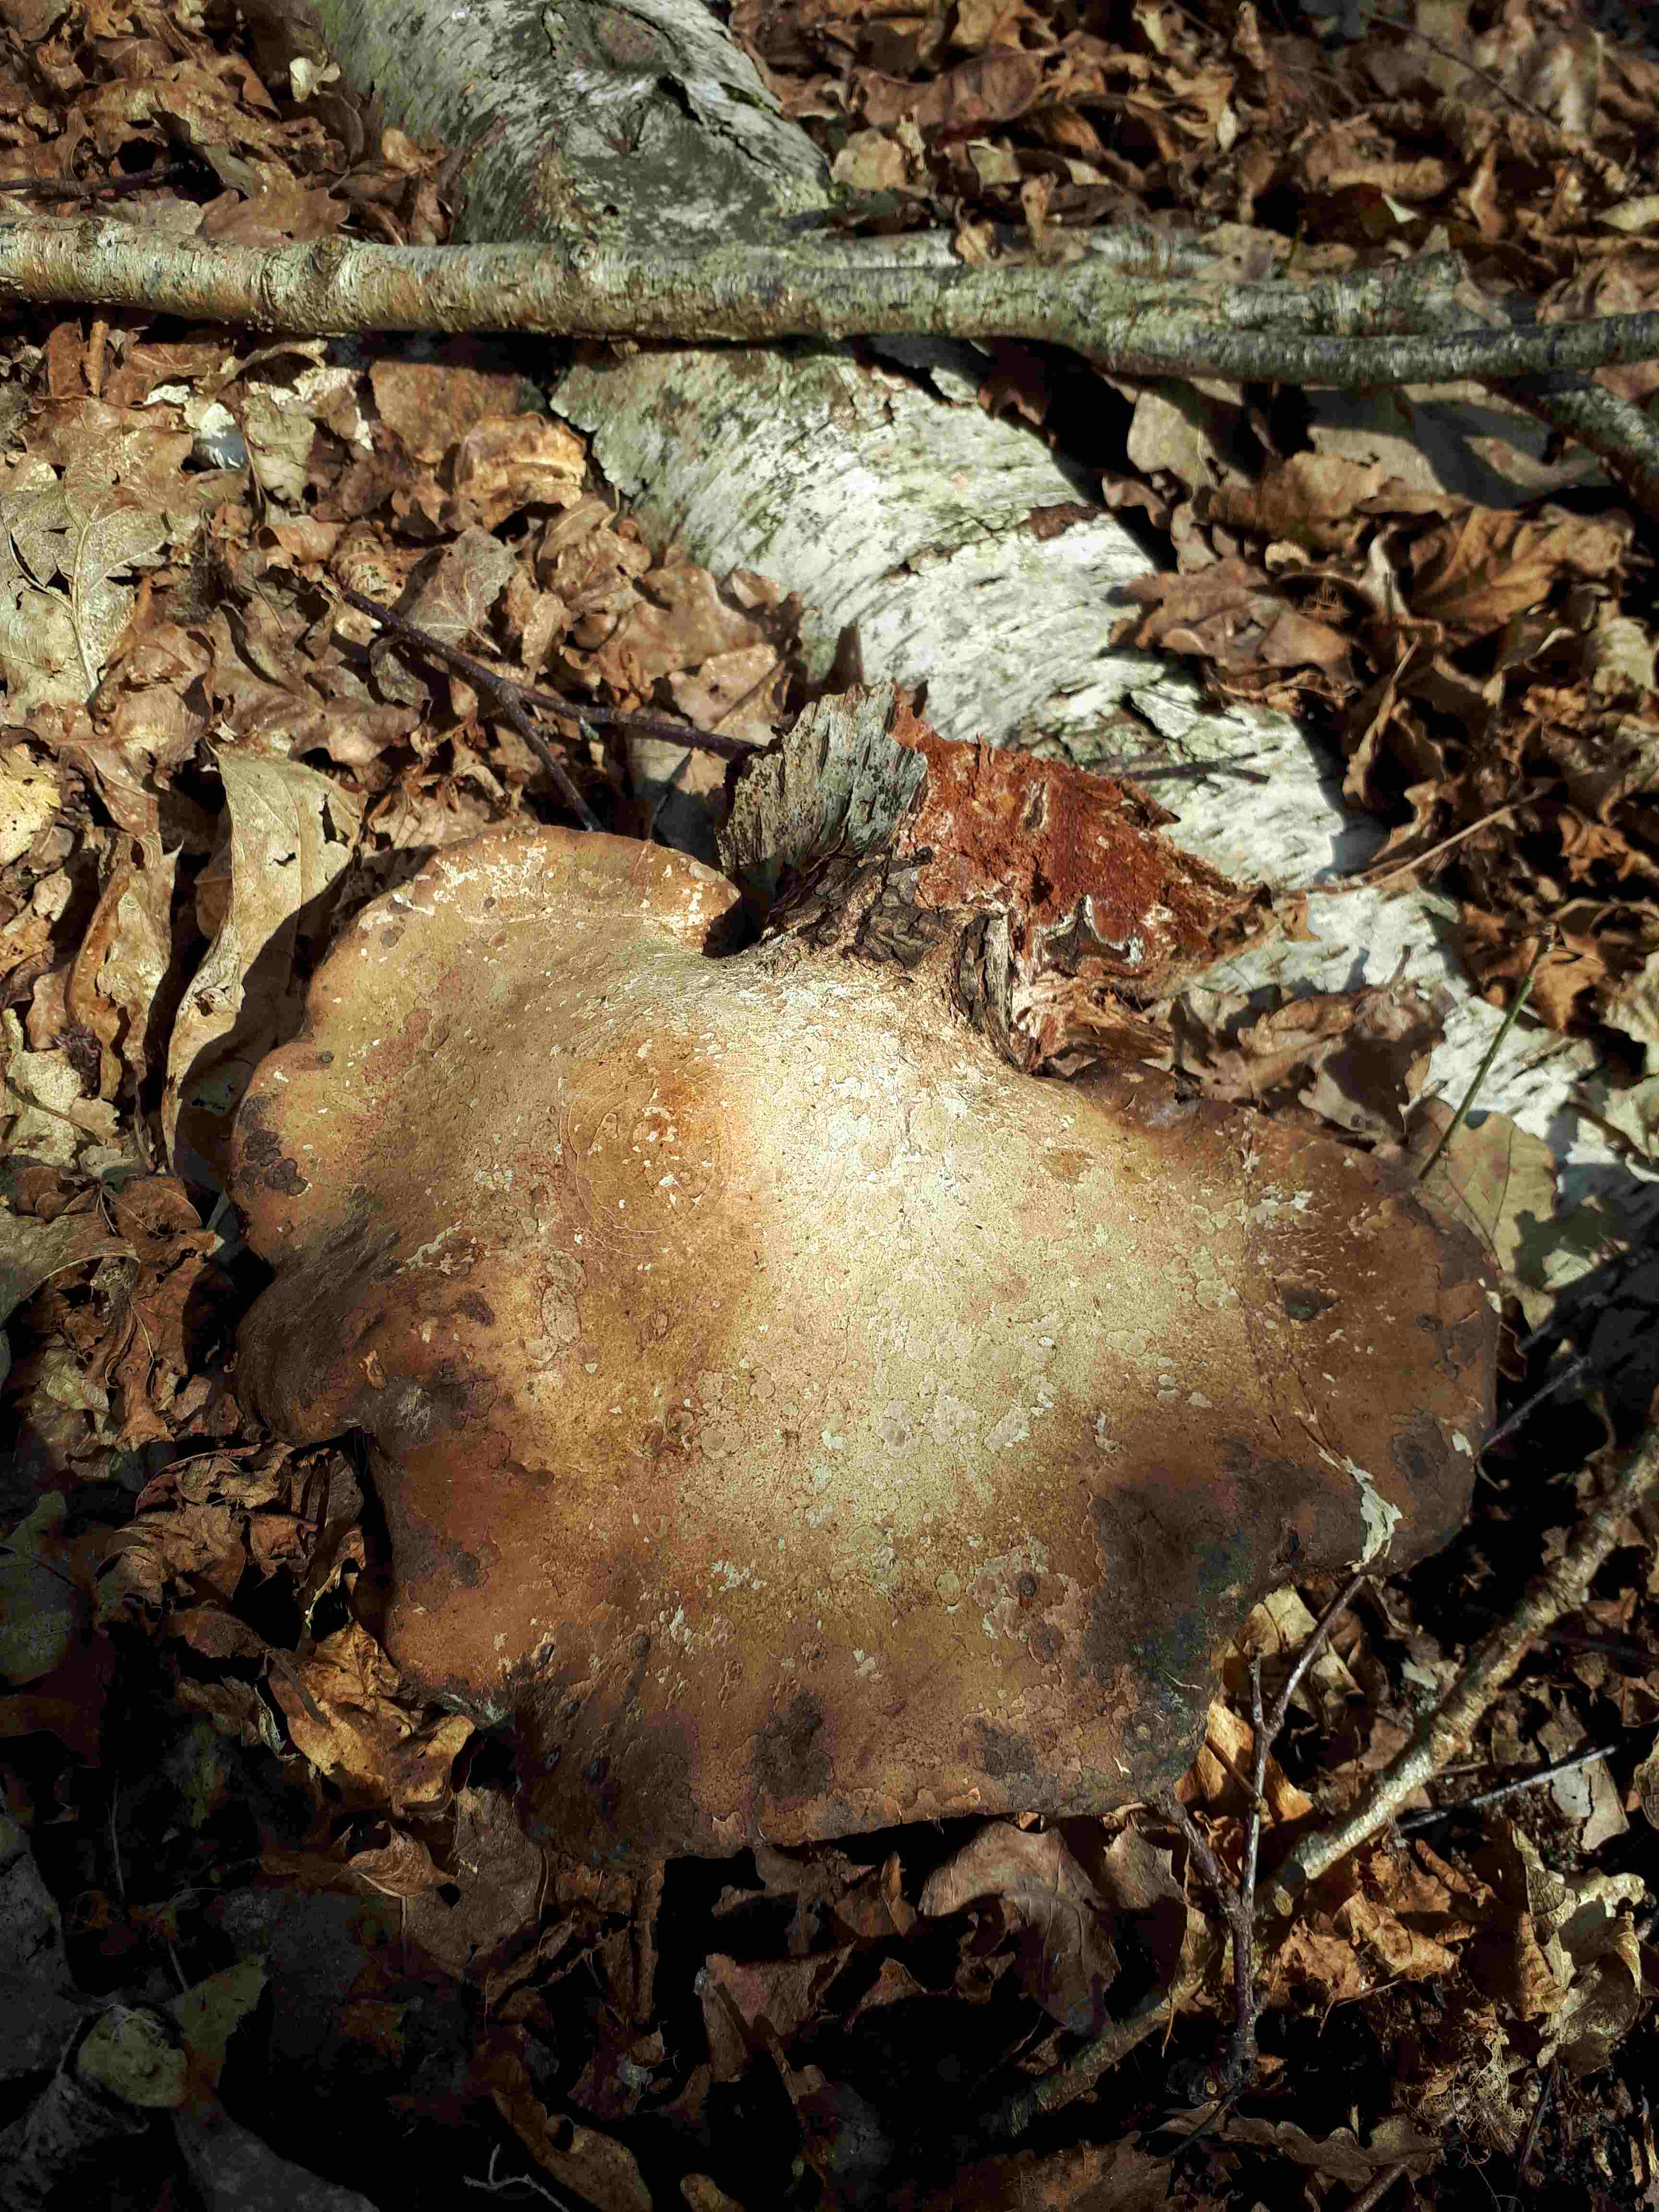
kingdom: Fungi
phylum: Basidiomycota
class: Agaricomycetes
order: Polyporales
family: Fomitopsidaceae
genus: Fomitopsis
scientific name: Fomitopsis betulina
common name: birkeporesvamp
